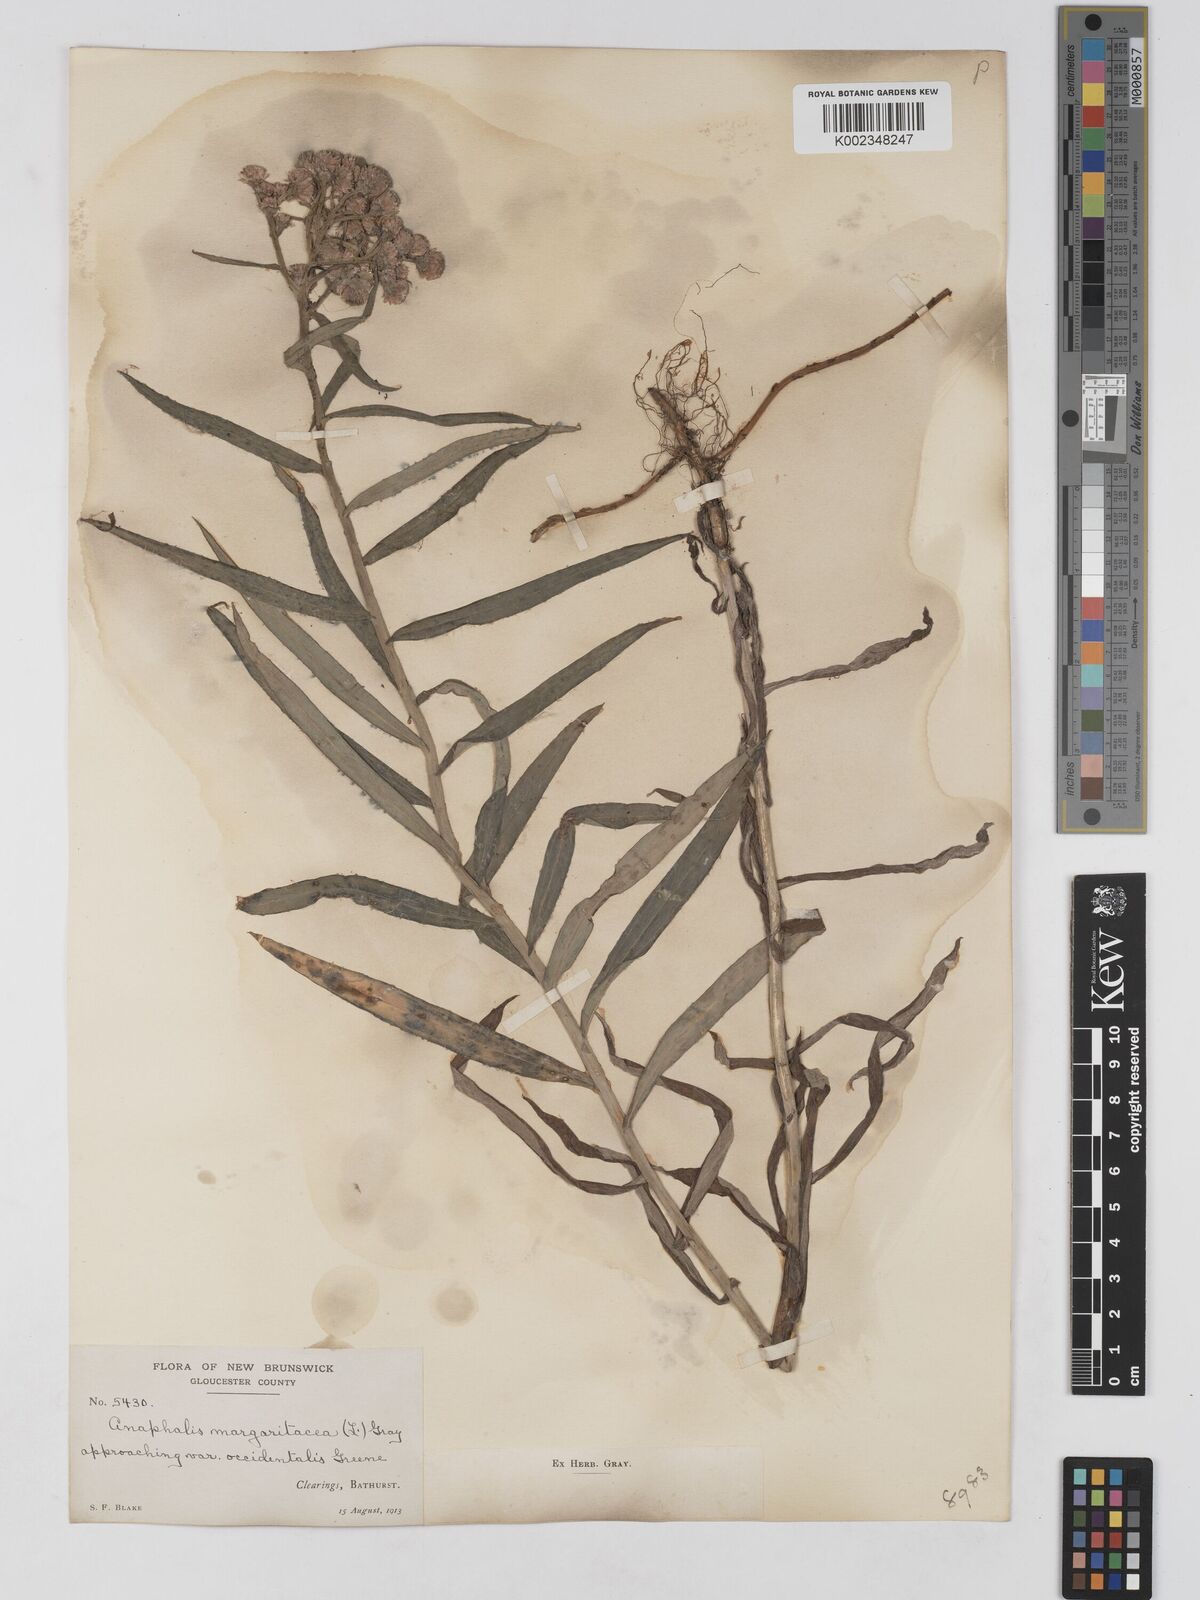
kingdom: Plantae
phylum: Tracheophyta
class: Magnoliopsida
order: Asterales
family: Asteraceae
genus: Anaphalis
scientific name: Anaphalis margaritacea
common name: Pearly everlasting
